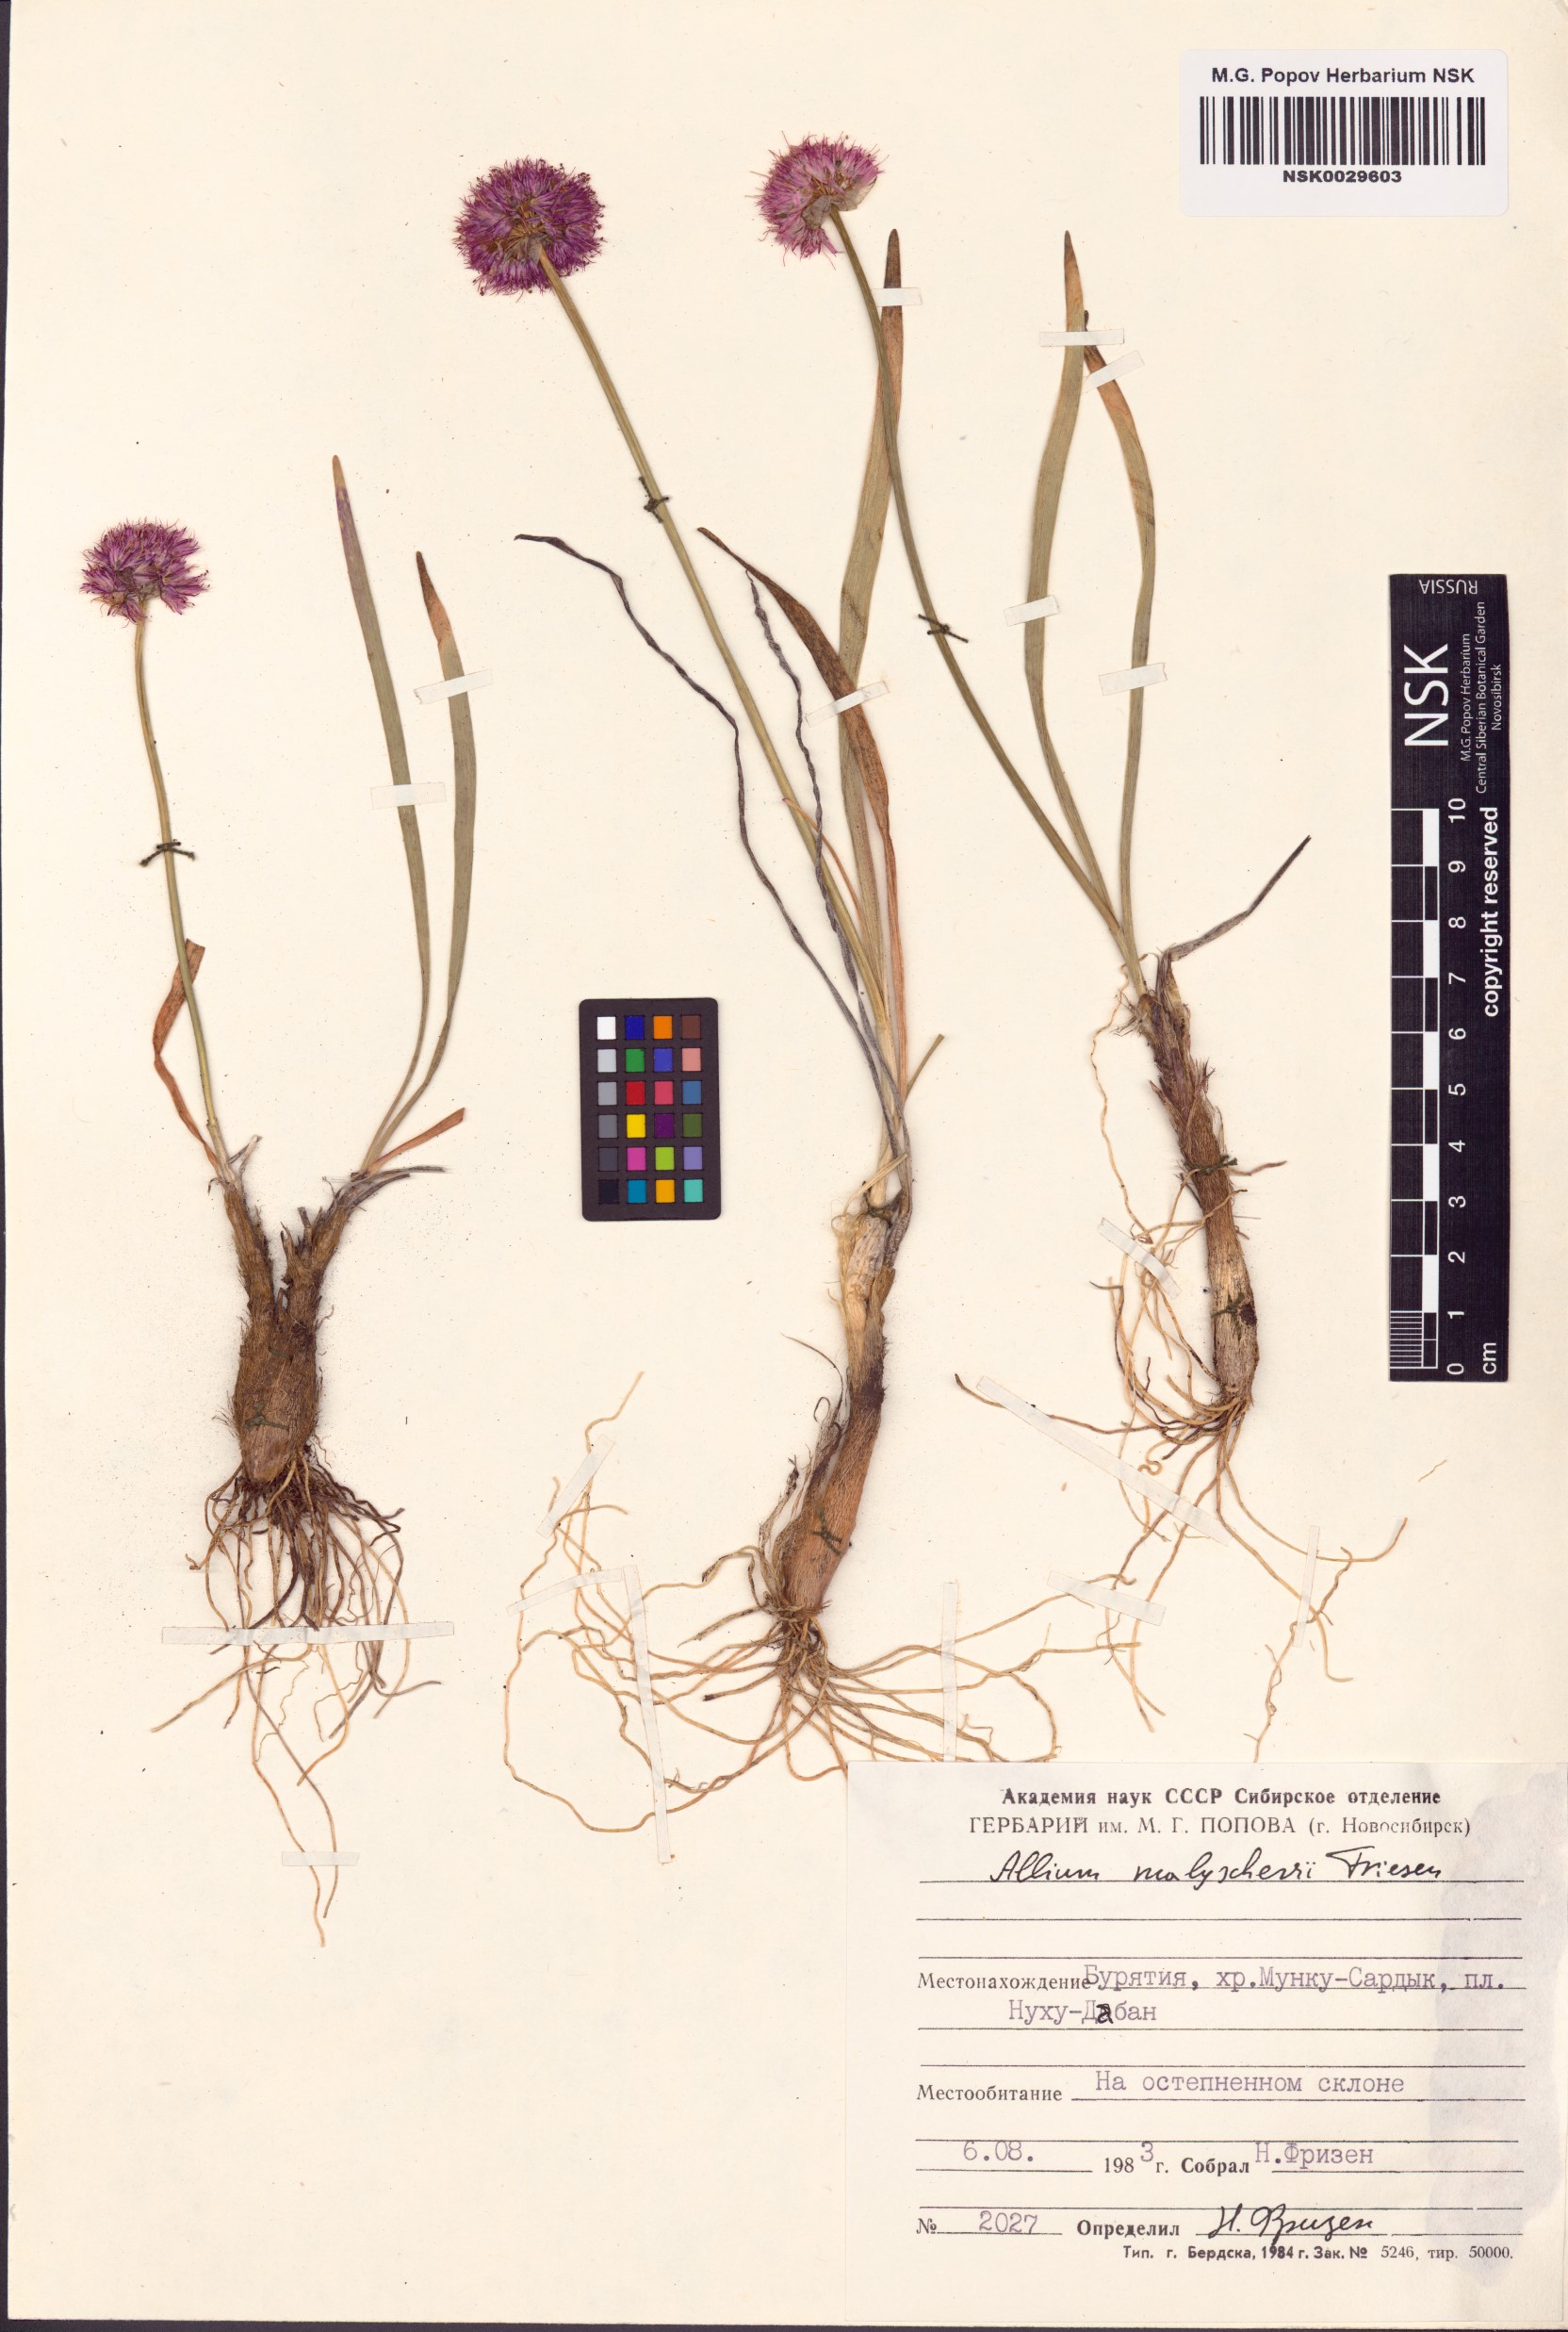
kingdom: Plantae
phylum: Tracheophyta
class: Liliopsida
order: Asparagales
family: Amaryllidaceae
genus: Allium
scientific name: Allium malyschevii
